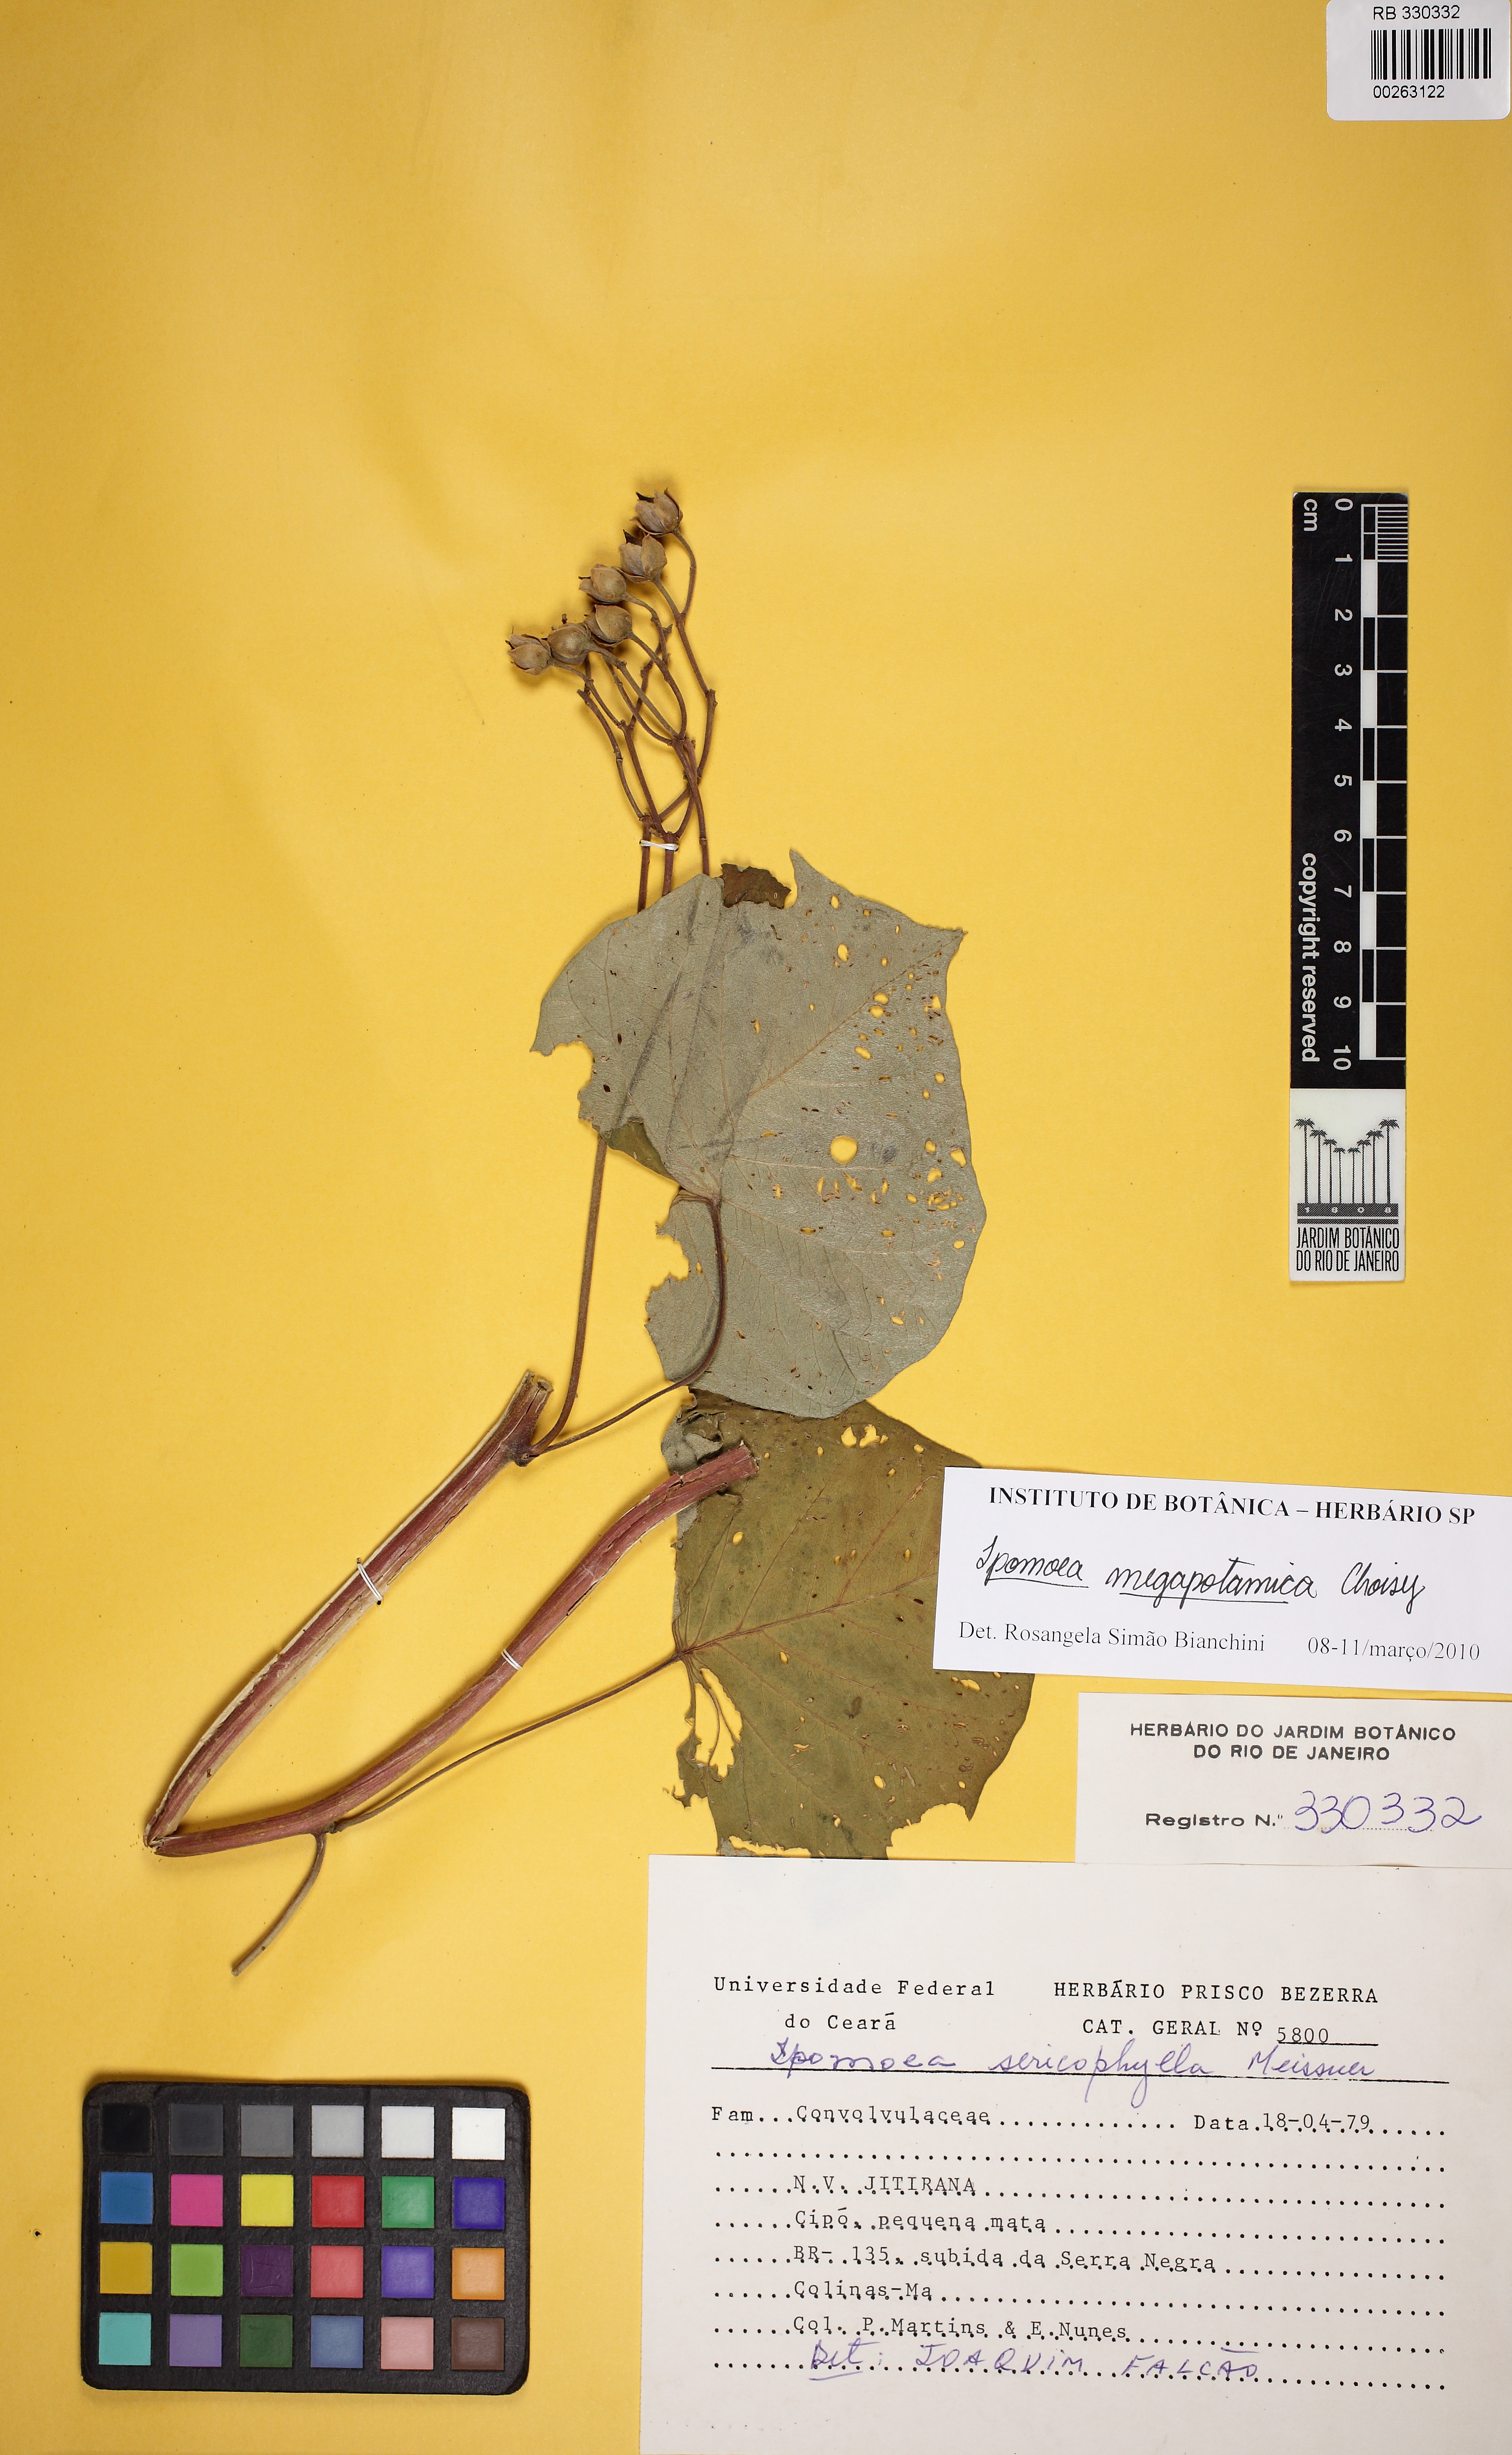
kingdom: Plantae
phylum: Tracheophyta
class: Magnoliopsida
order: Solanales
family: Convolvulaceae
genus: Ipomoea
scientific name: Ipomoea megapotamica
